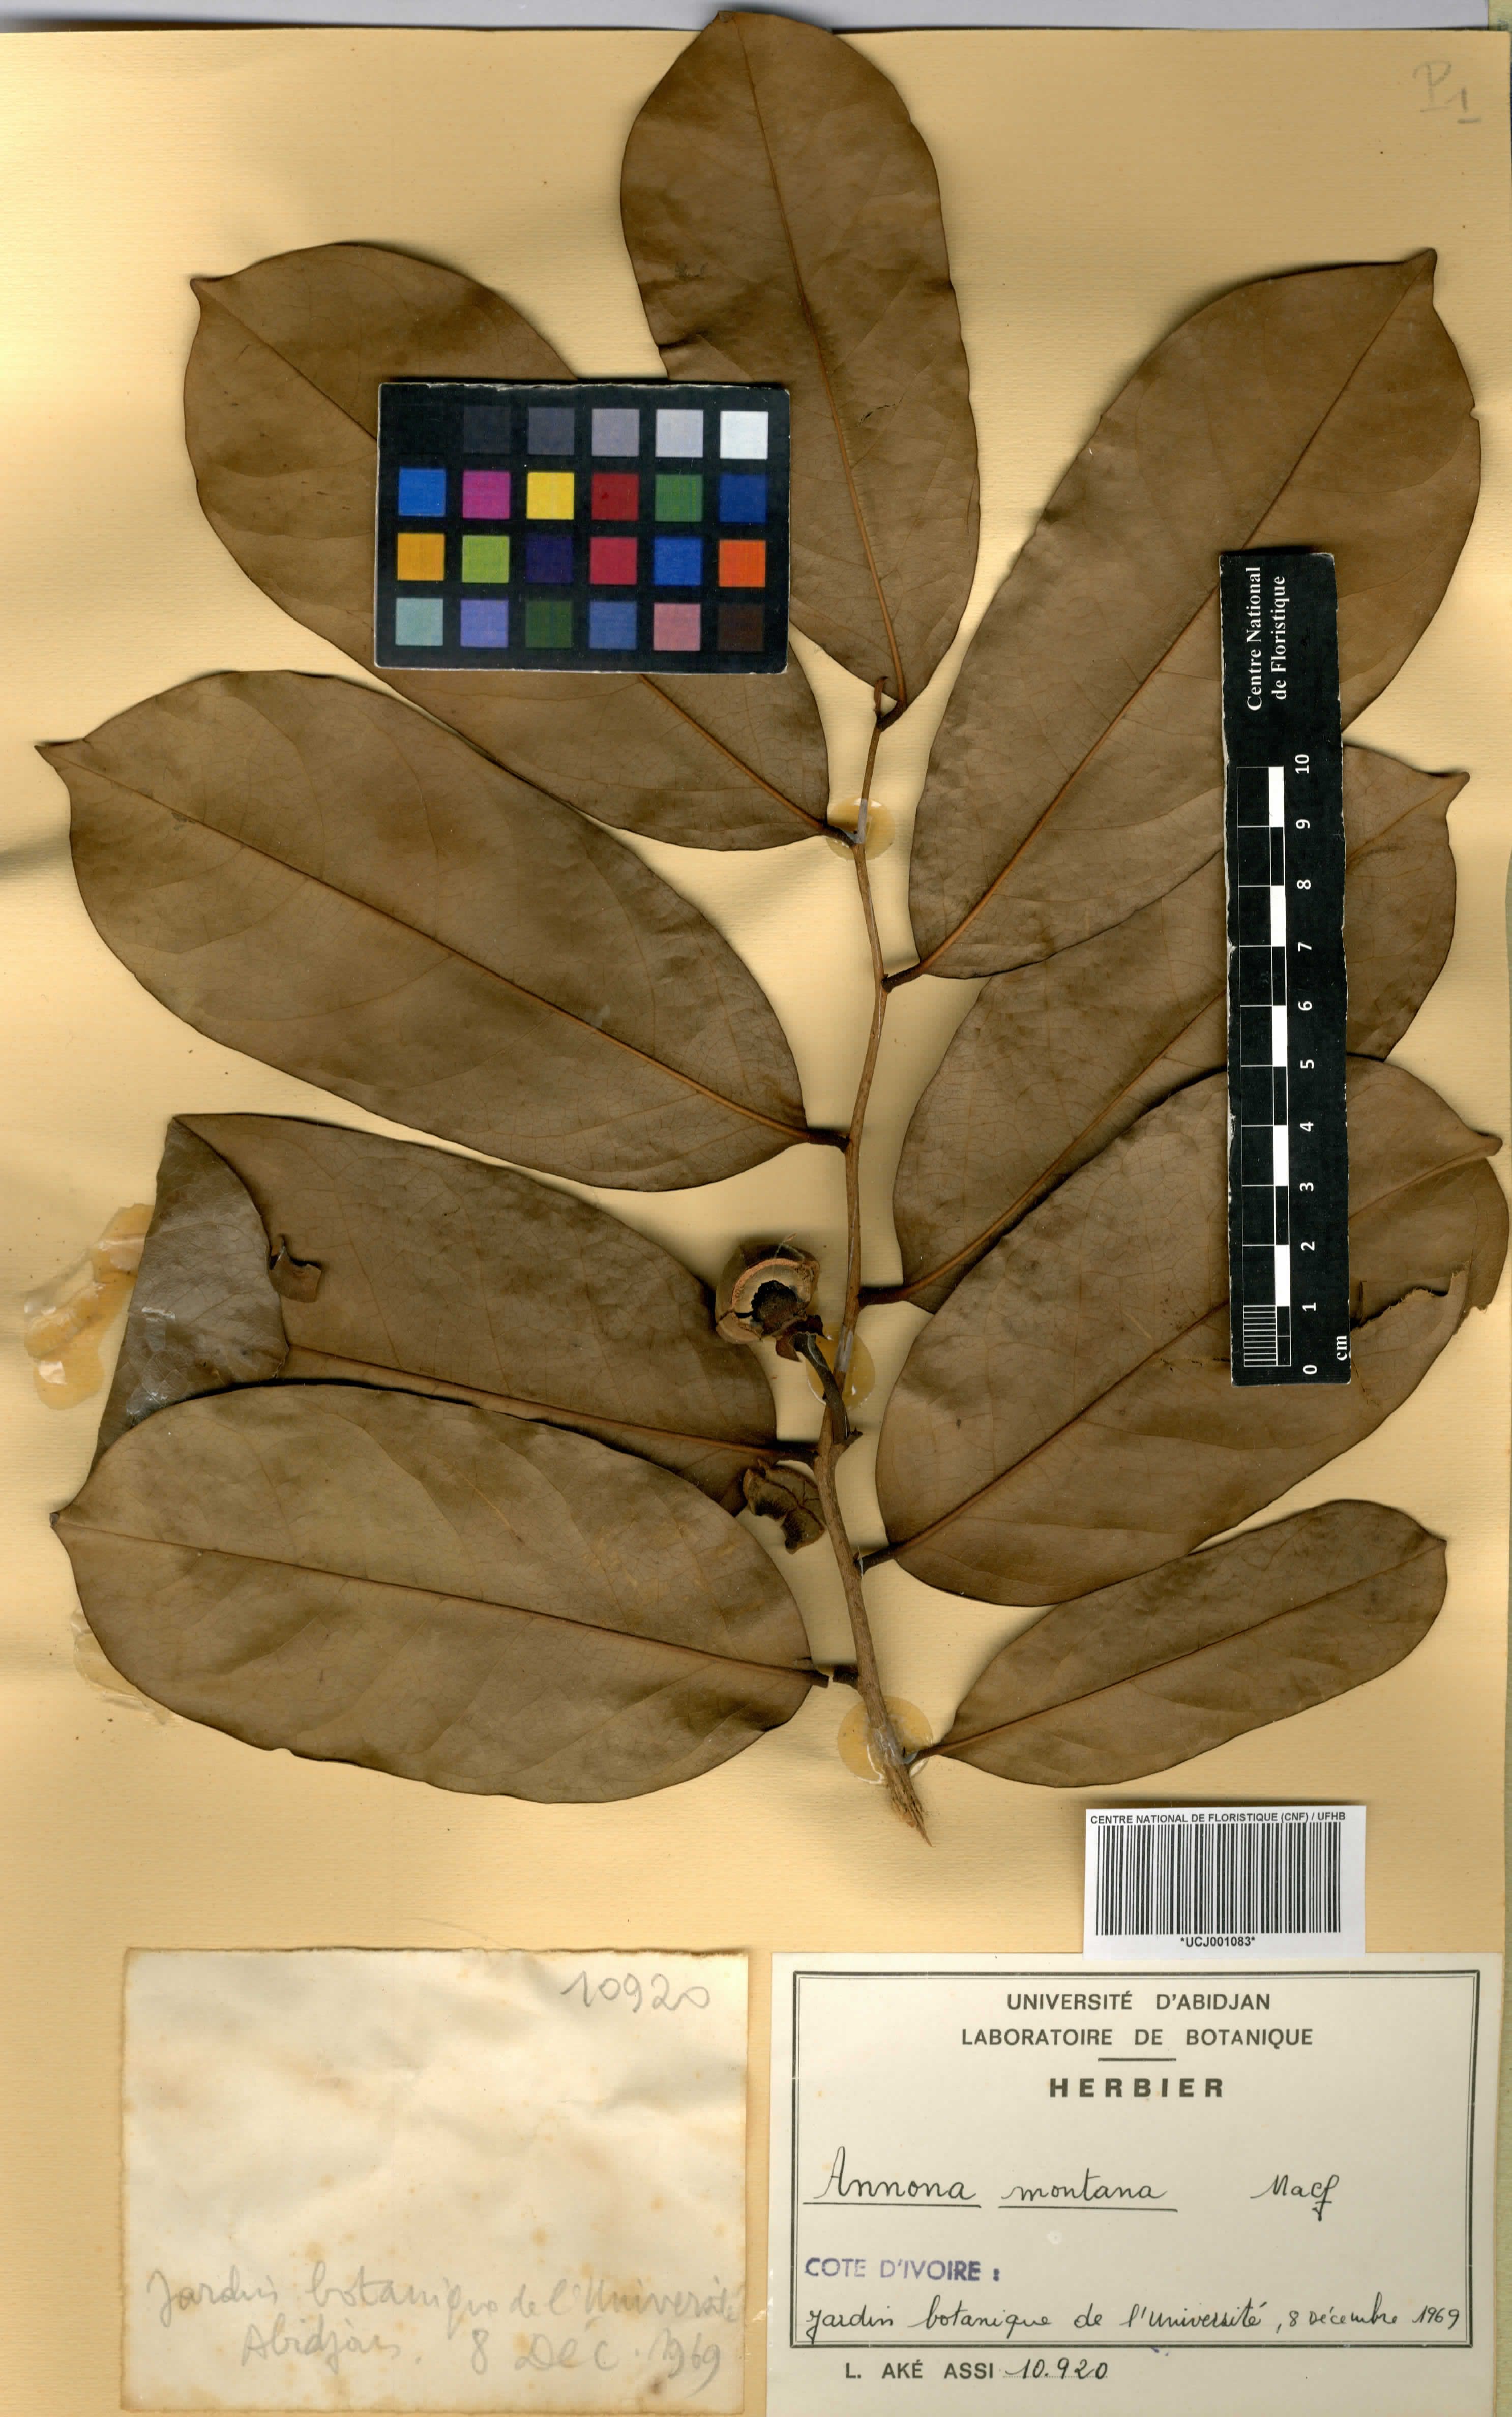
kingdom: Plantae
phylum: Tracheophyta
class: Magnoliopsida
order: Magnoliales
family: Annonaceae
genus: Annona
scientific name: Annona montana
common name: Mountain soursop
